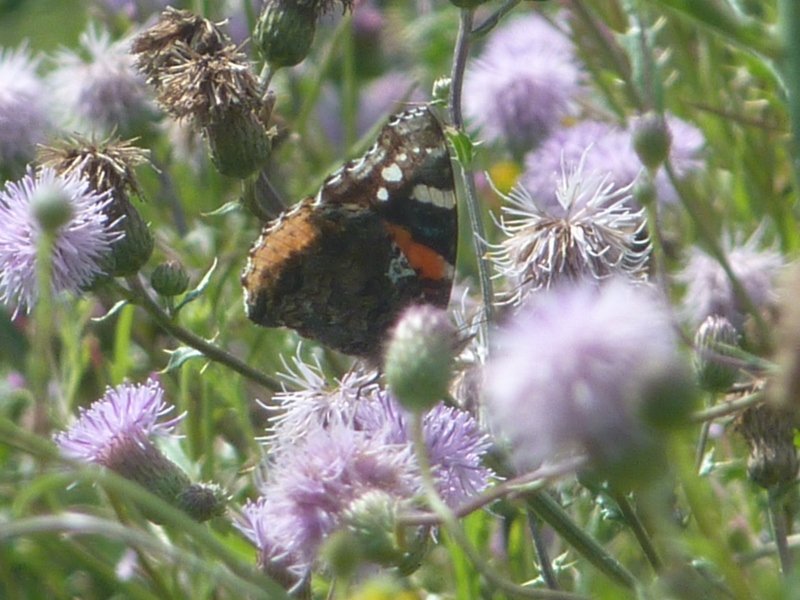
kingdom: Animalia
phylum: Arthropoda
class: Insecta
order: Lepidoptera
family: Nymphalidae
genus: Vanessa
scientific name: Vanessa atalanta
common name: Red Admiral
